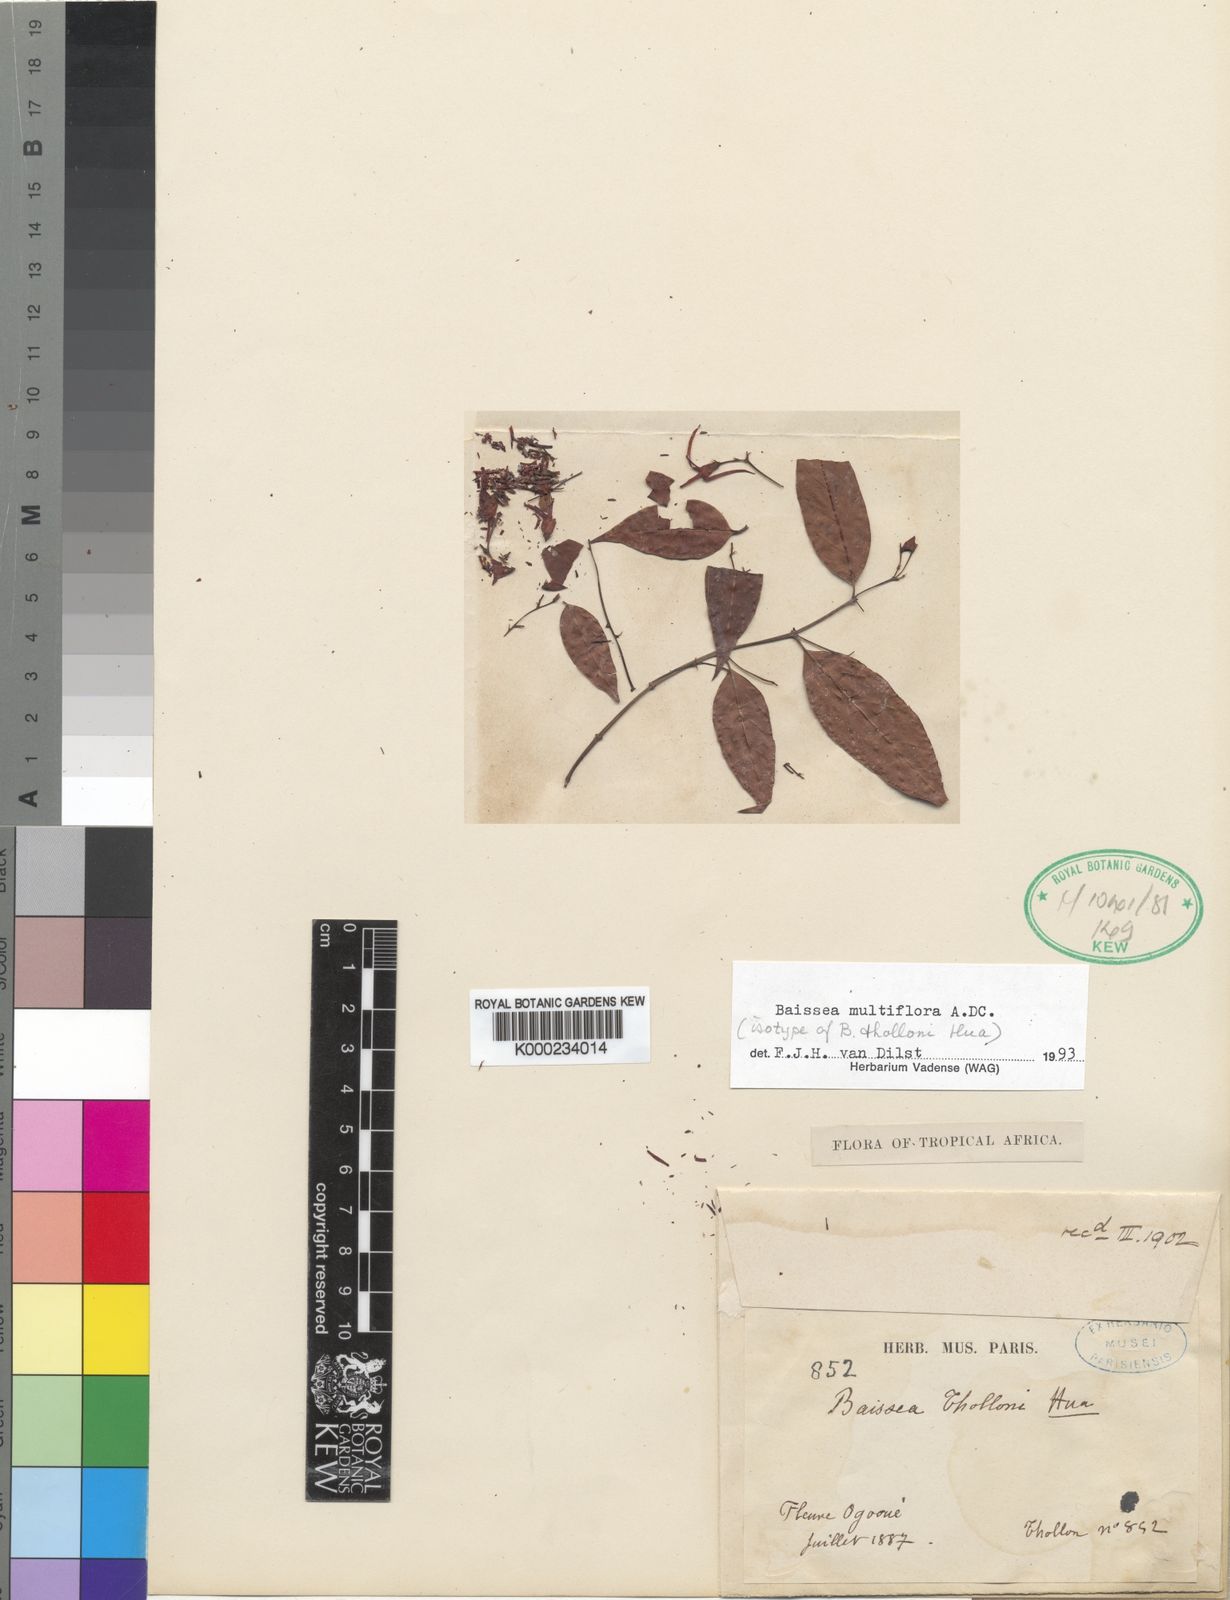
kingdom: Plantae
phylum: Tracheophyta
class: Magnoliopsida
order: Gentianales
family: Apocynaceae
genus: Baissea
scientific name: Baissea multiflora
